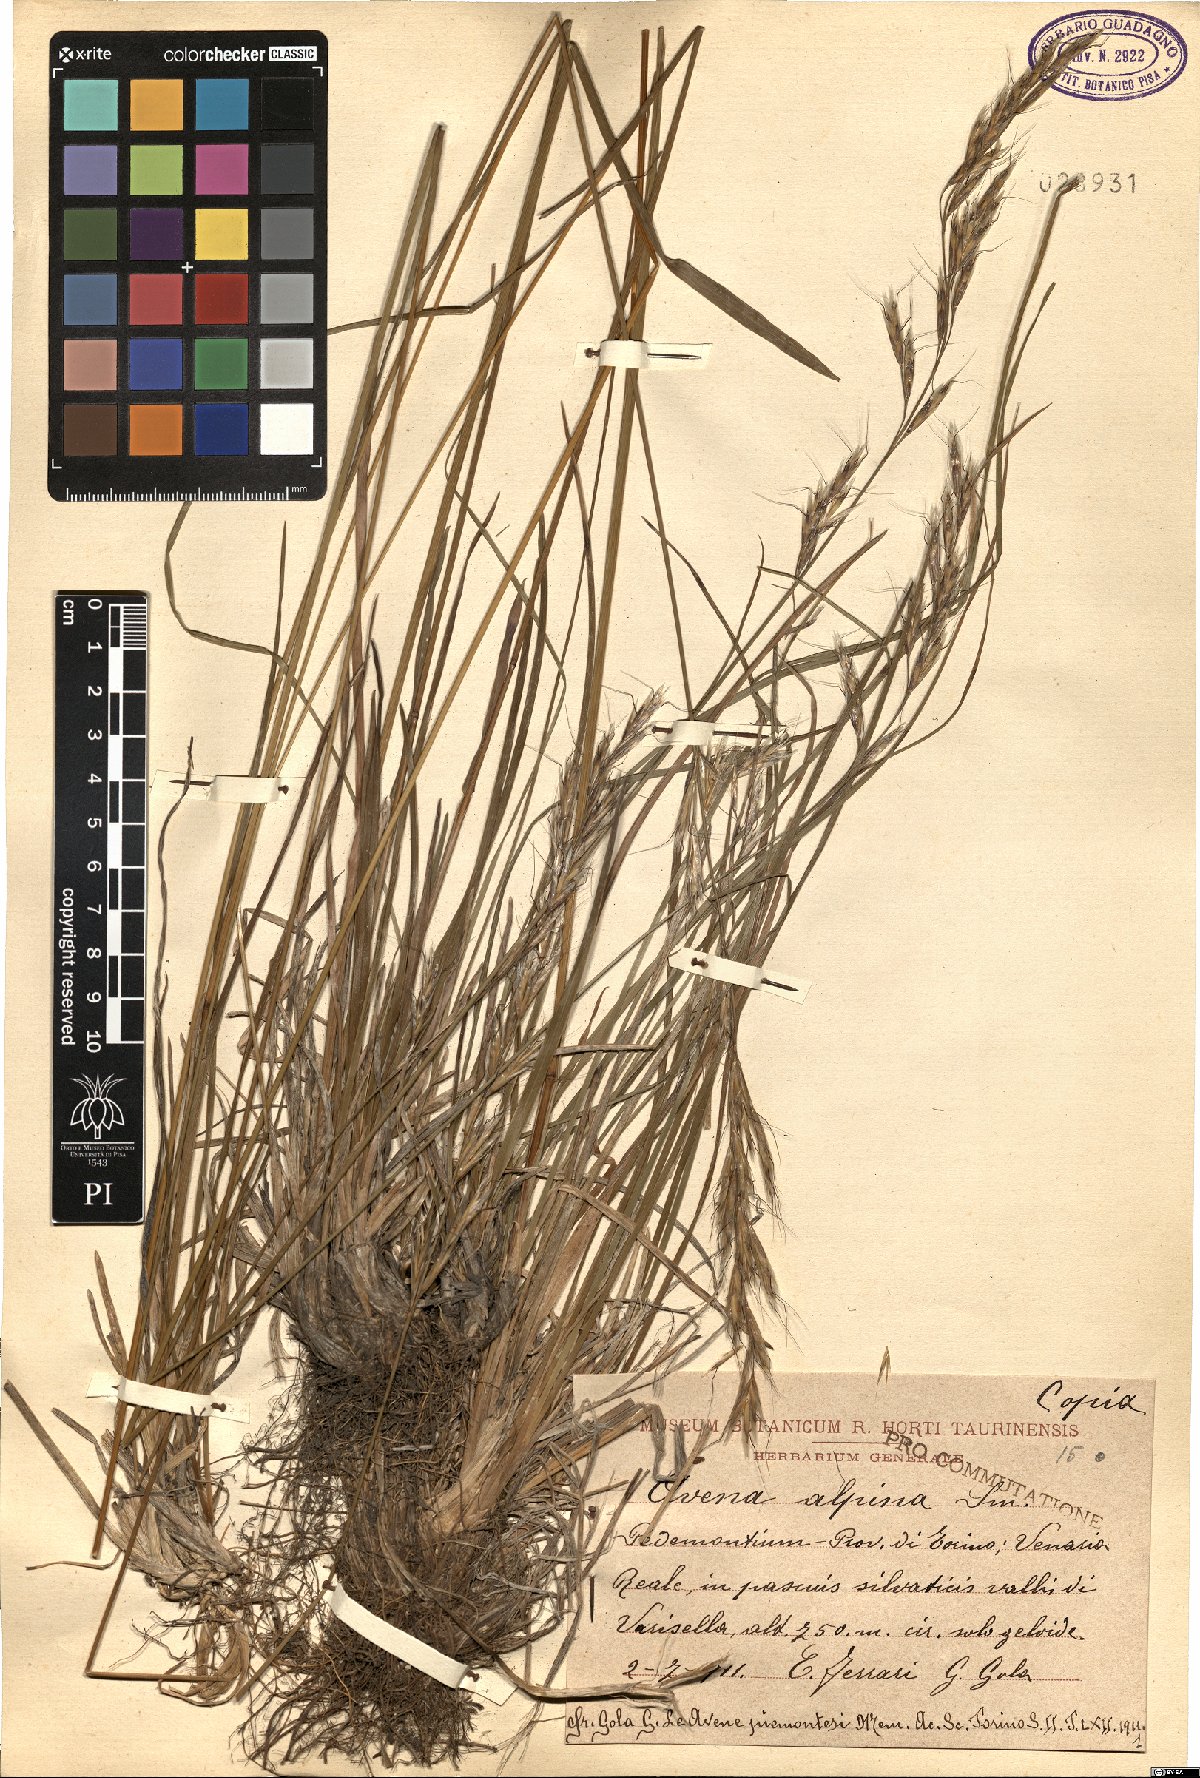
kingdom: Plantae
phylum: Tracheophyta
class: Liliopsida
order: Poales
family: Poaceae
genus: Helictochloa
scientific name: Helictochloa pratensis
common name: Meadow oat grass
